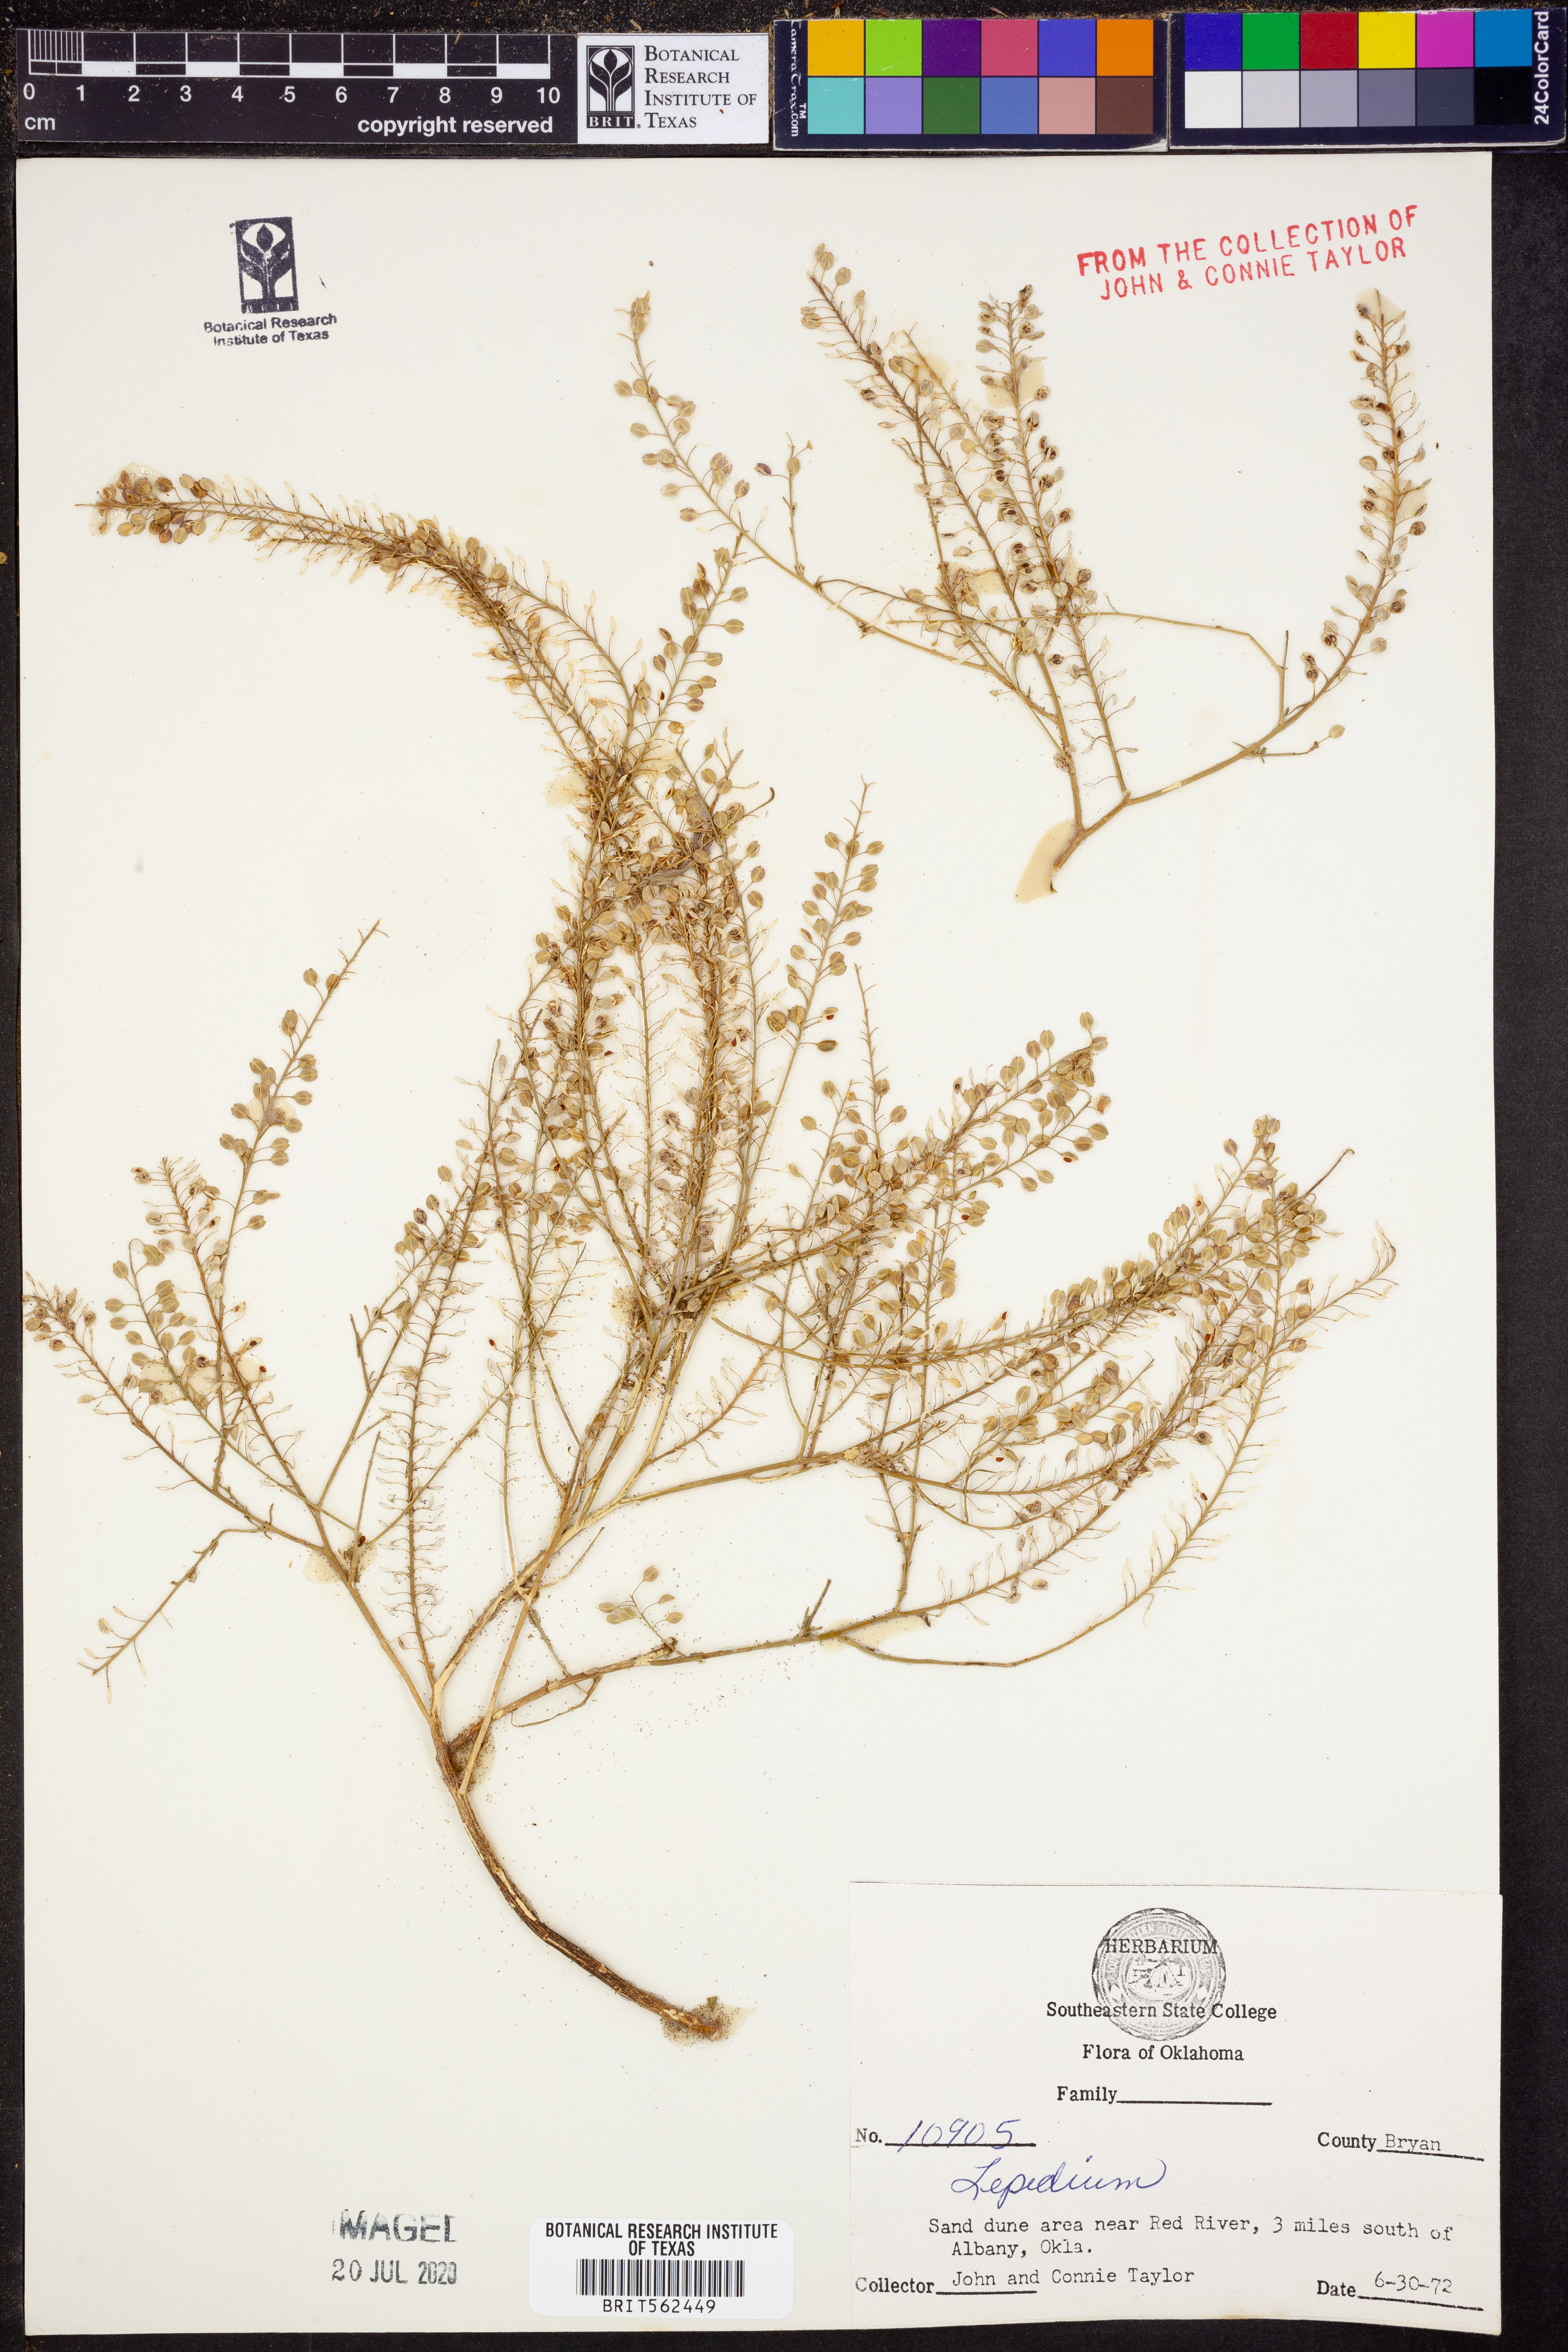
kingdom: Plantae
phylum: Tracheophyta
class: Magnoliopsida
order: Brassicales
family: Brassicaceae
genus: Lepidium
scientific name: Lepidium
